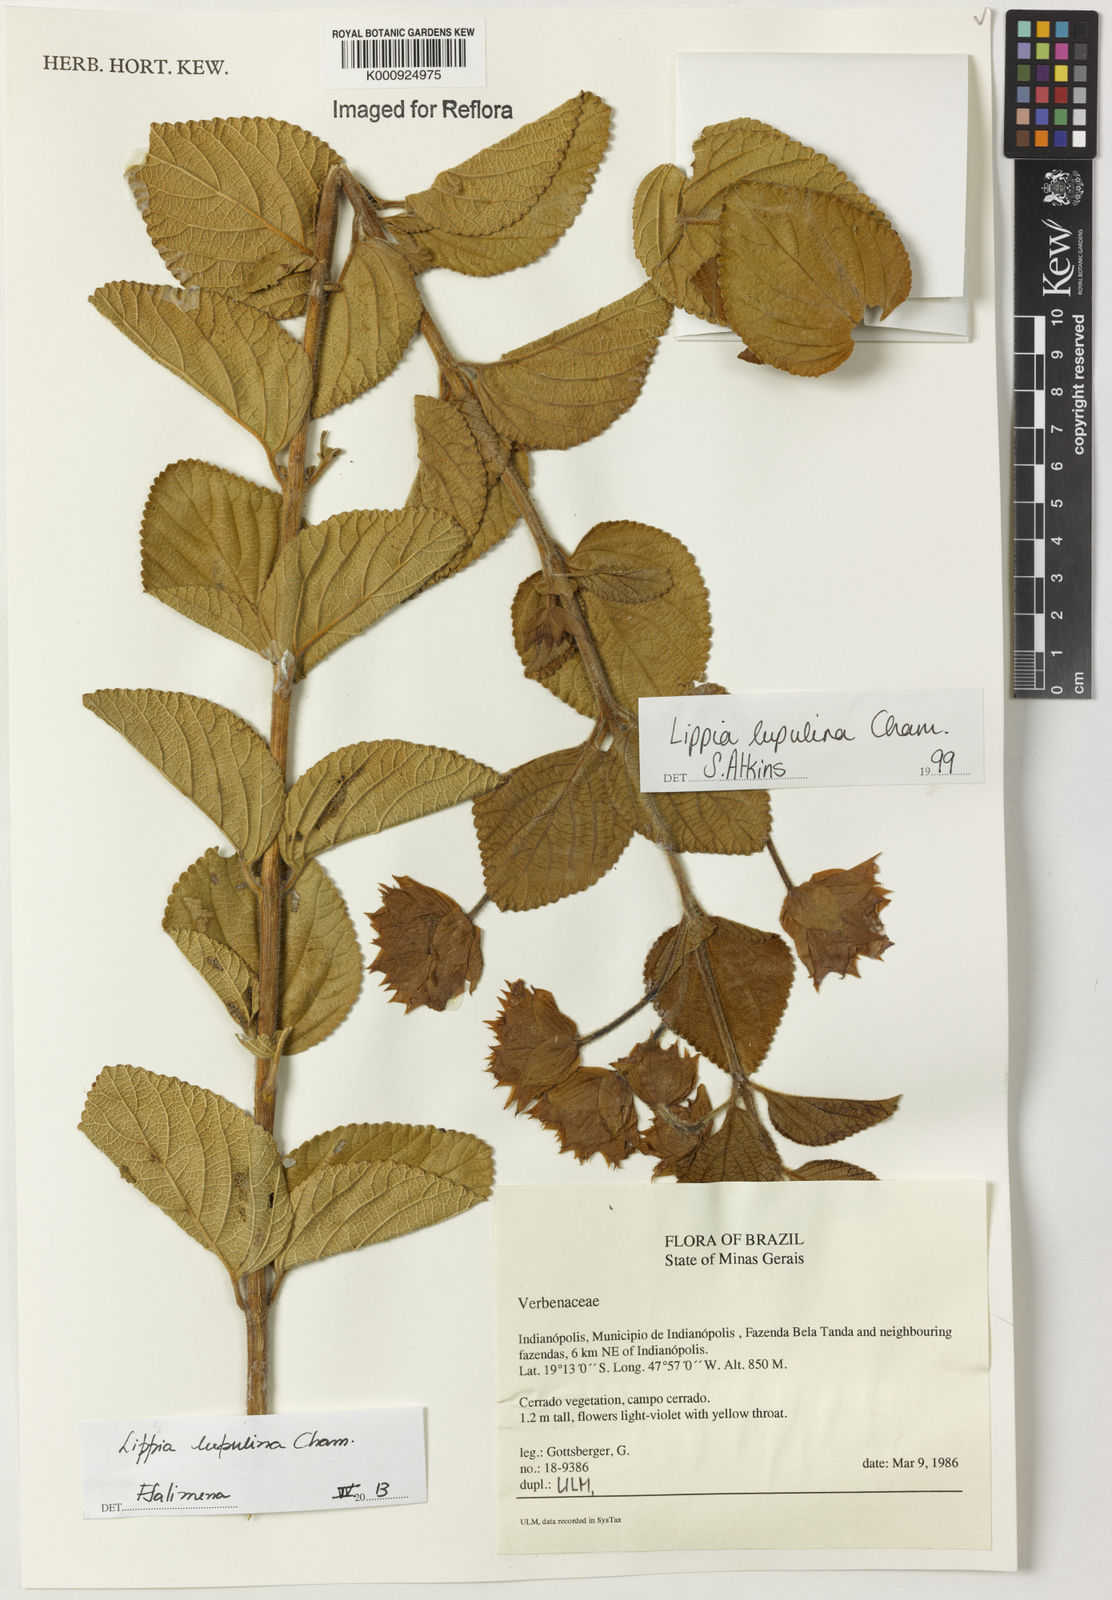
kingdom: Plantae
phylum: Tracheophyta
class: Magnoliopsida
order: Lamiales
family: Verbenaceae
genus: Lippia
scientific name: Lippia lupulina
